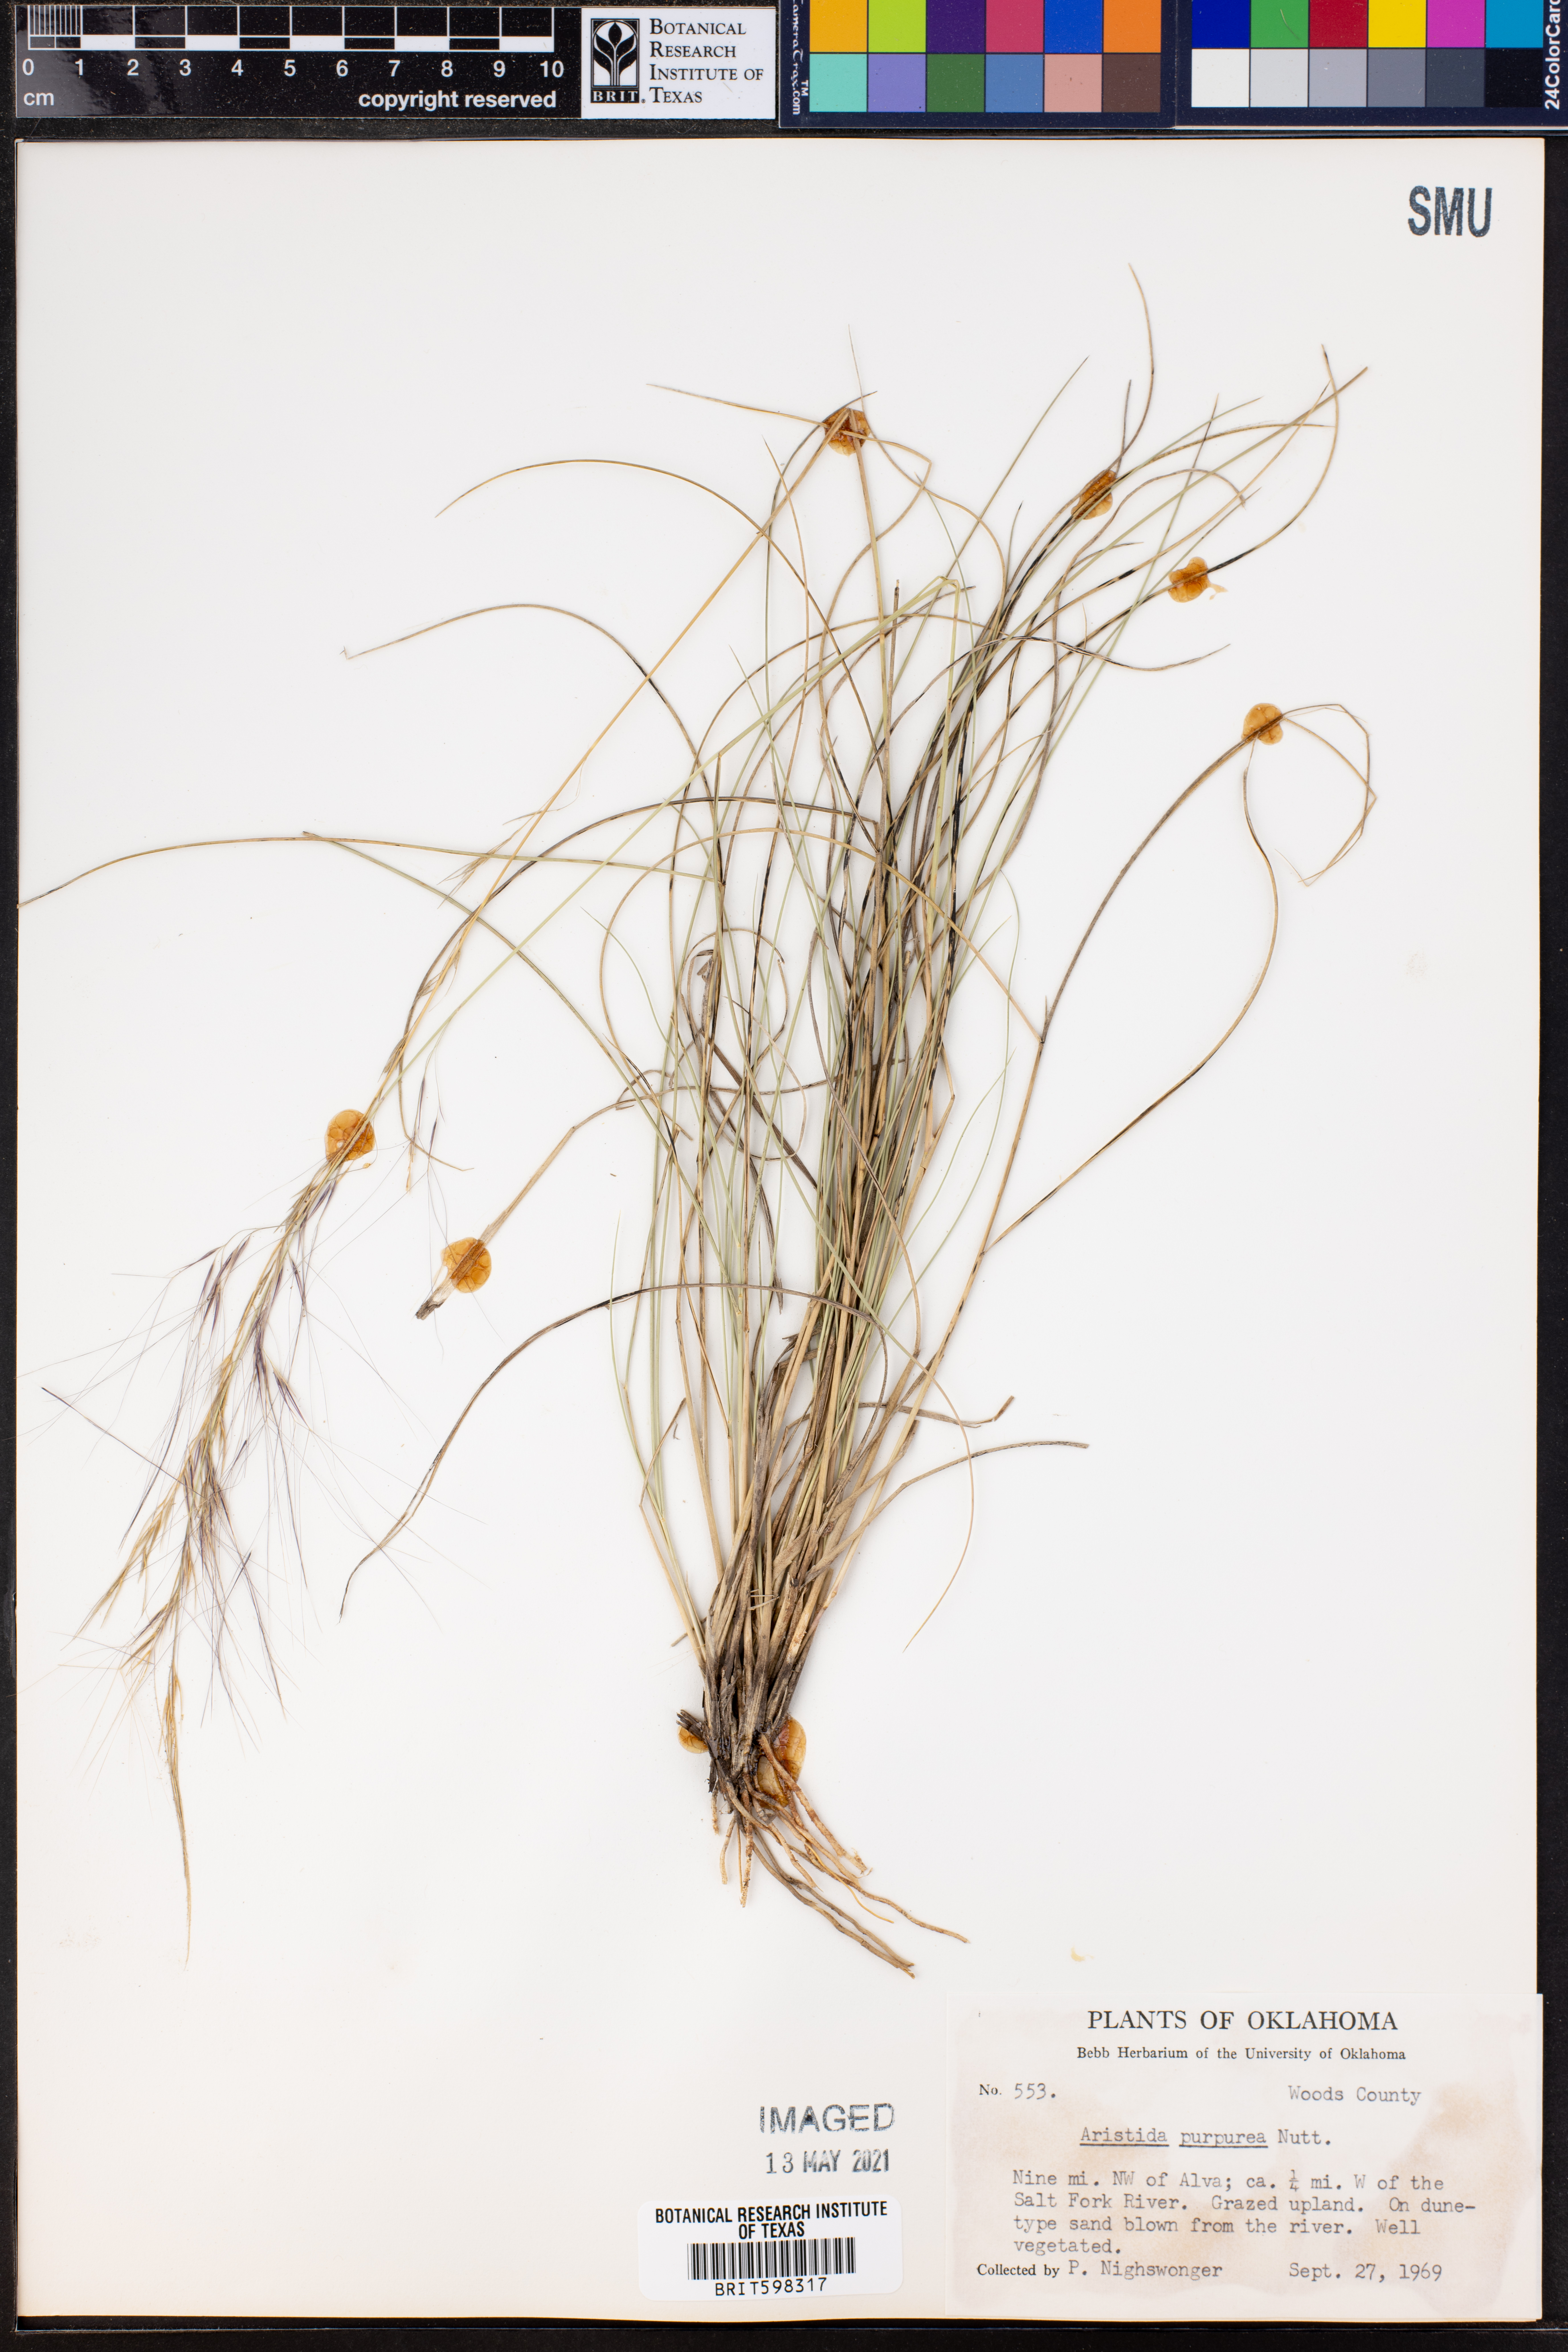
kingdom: Plantae
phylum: Tracheophyta
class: Liliopsida
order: Poales
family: Poaceae
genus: Aristida
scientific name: Aristida purpurea
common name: Purple threeawn
